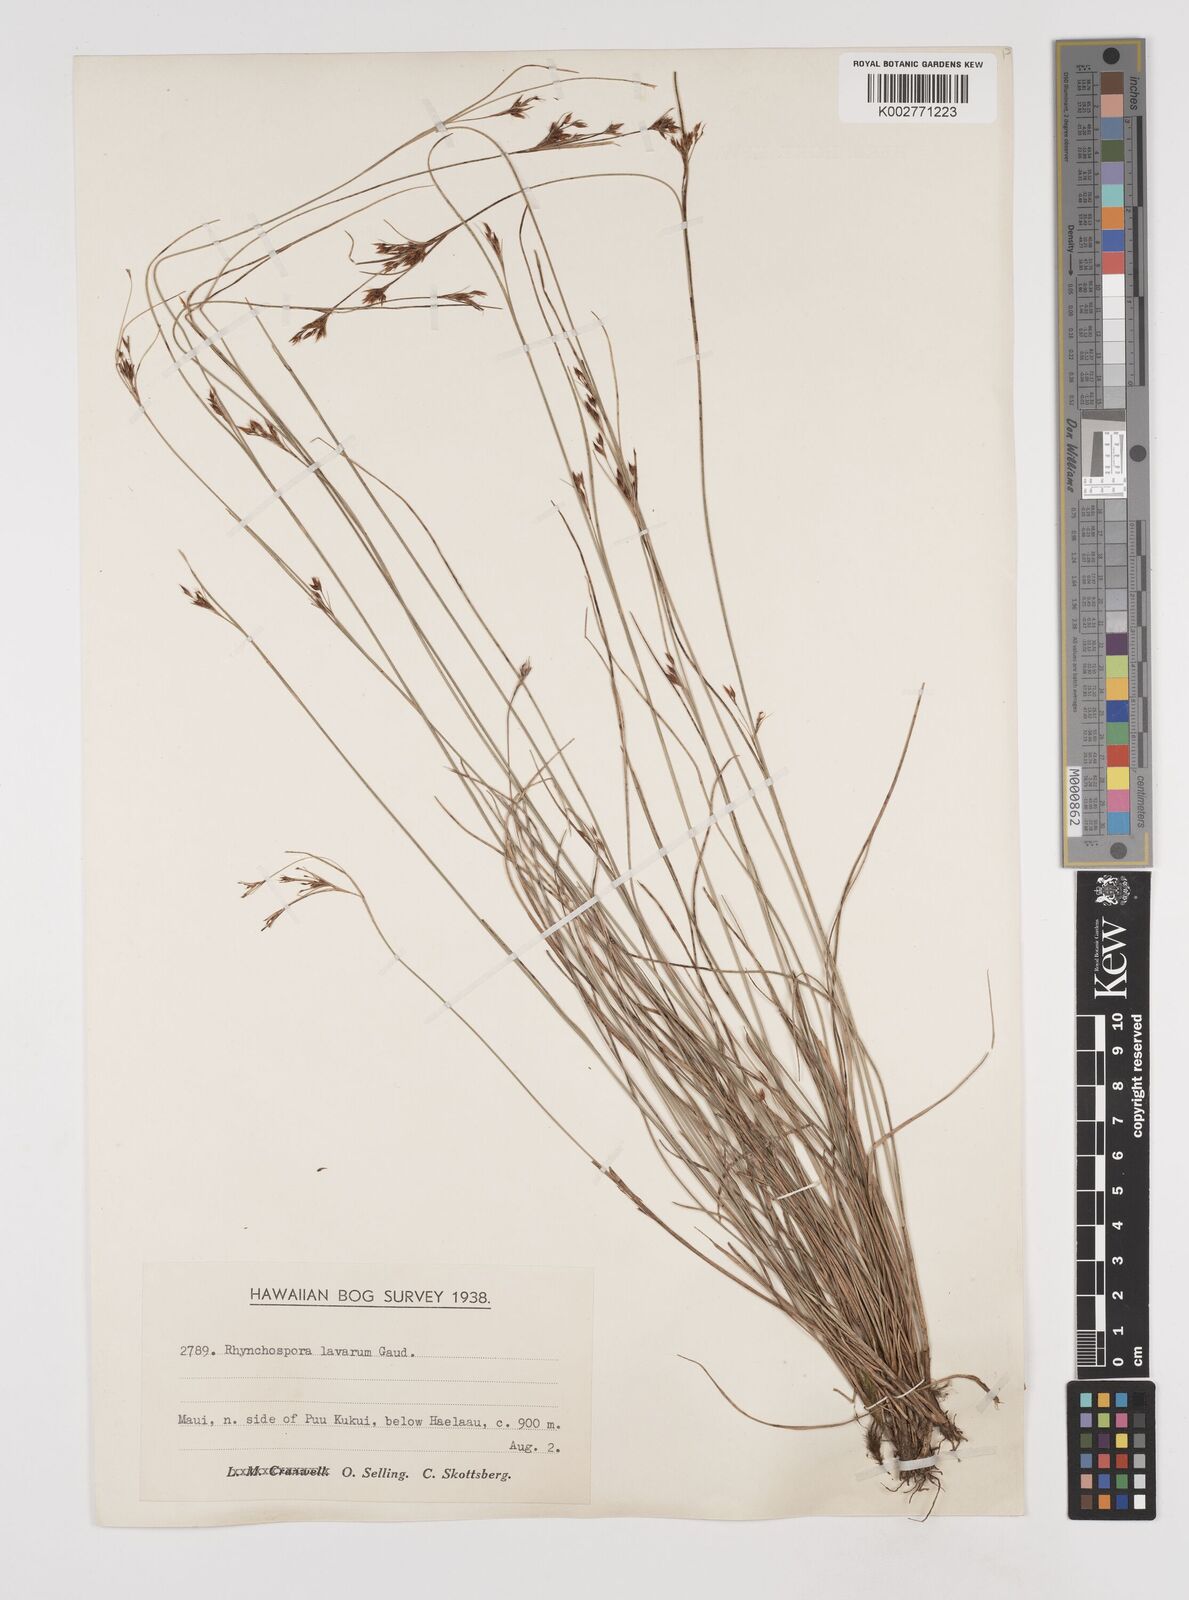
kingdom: Plantae
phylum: Tracheophyta
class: Liliopsida
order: Poales
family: Cyperaceae
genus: Rhynchospora
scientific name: Rhynchospora rugosa
